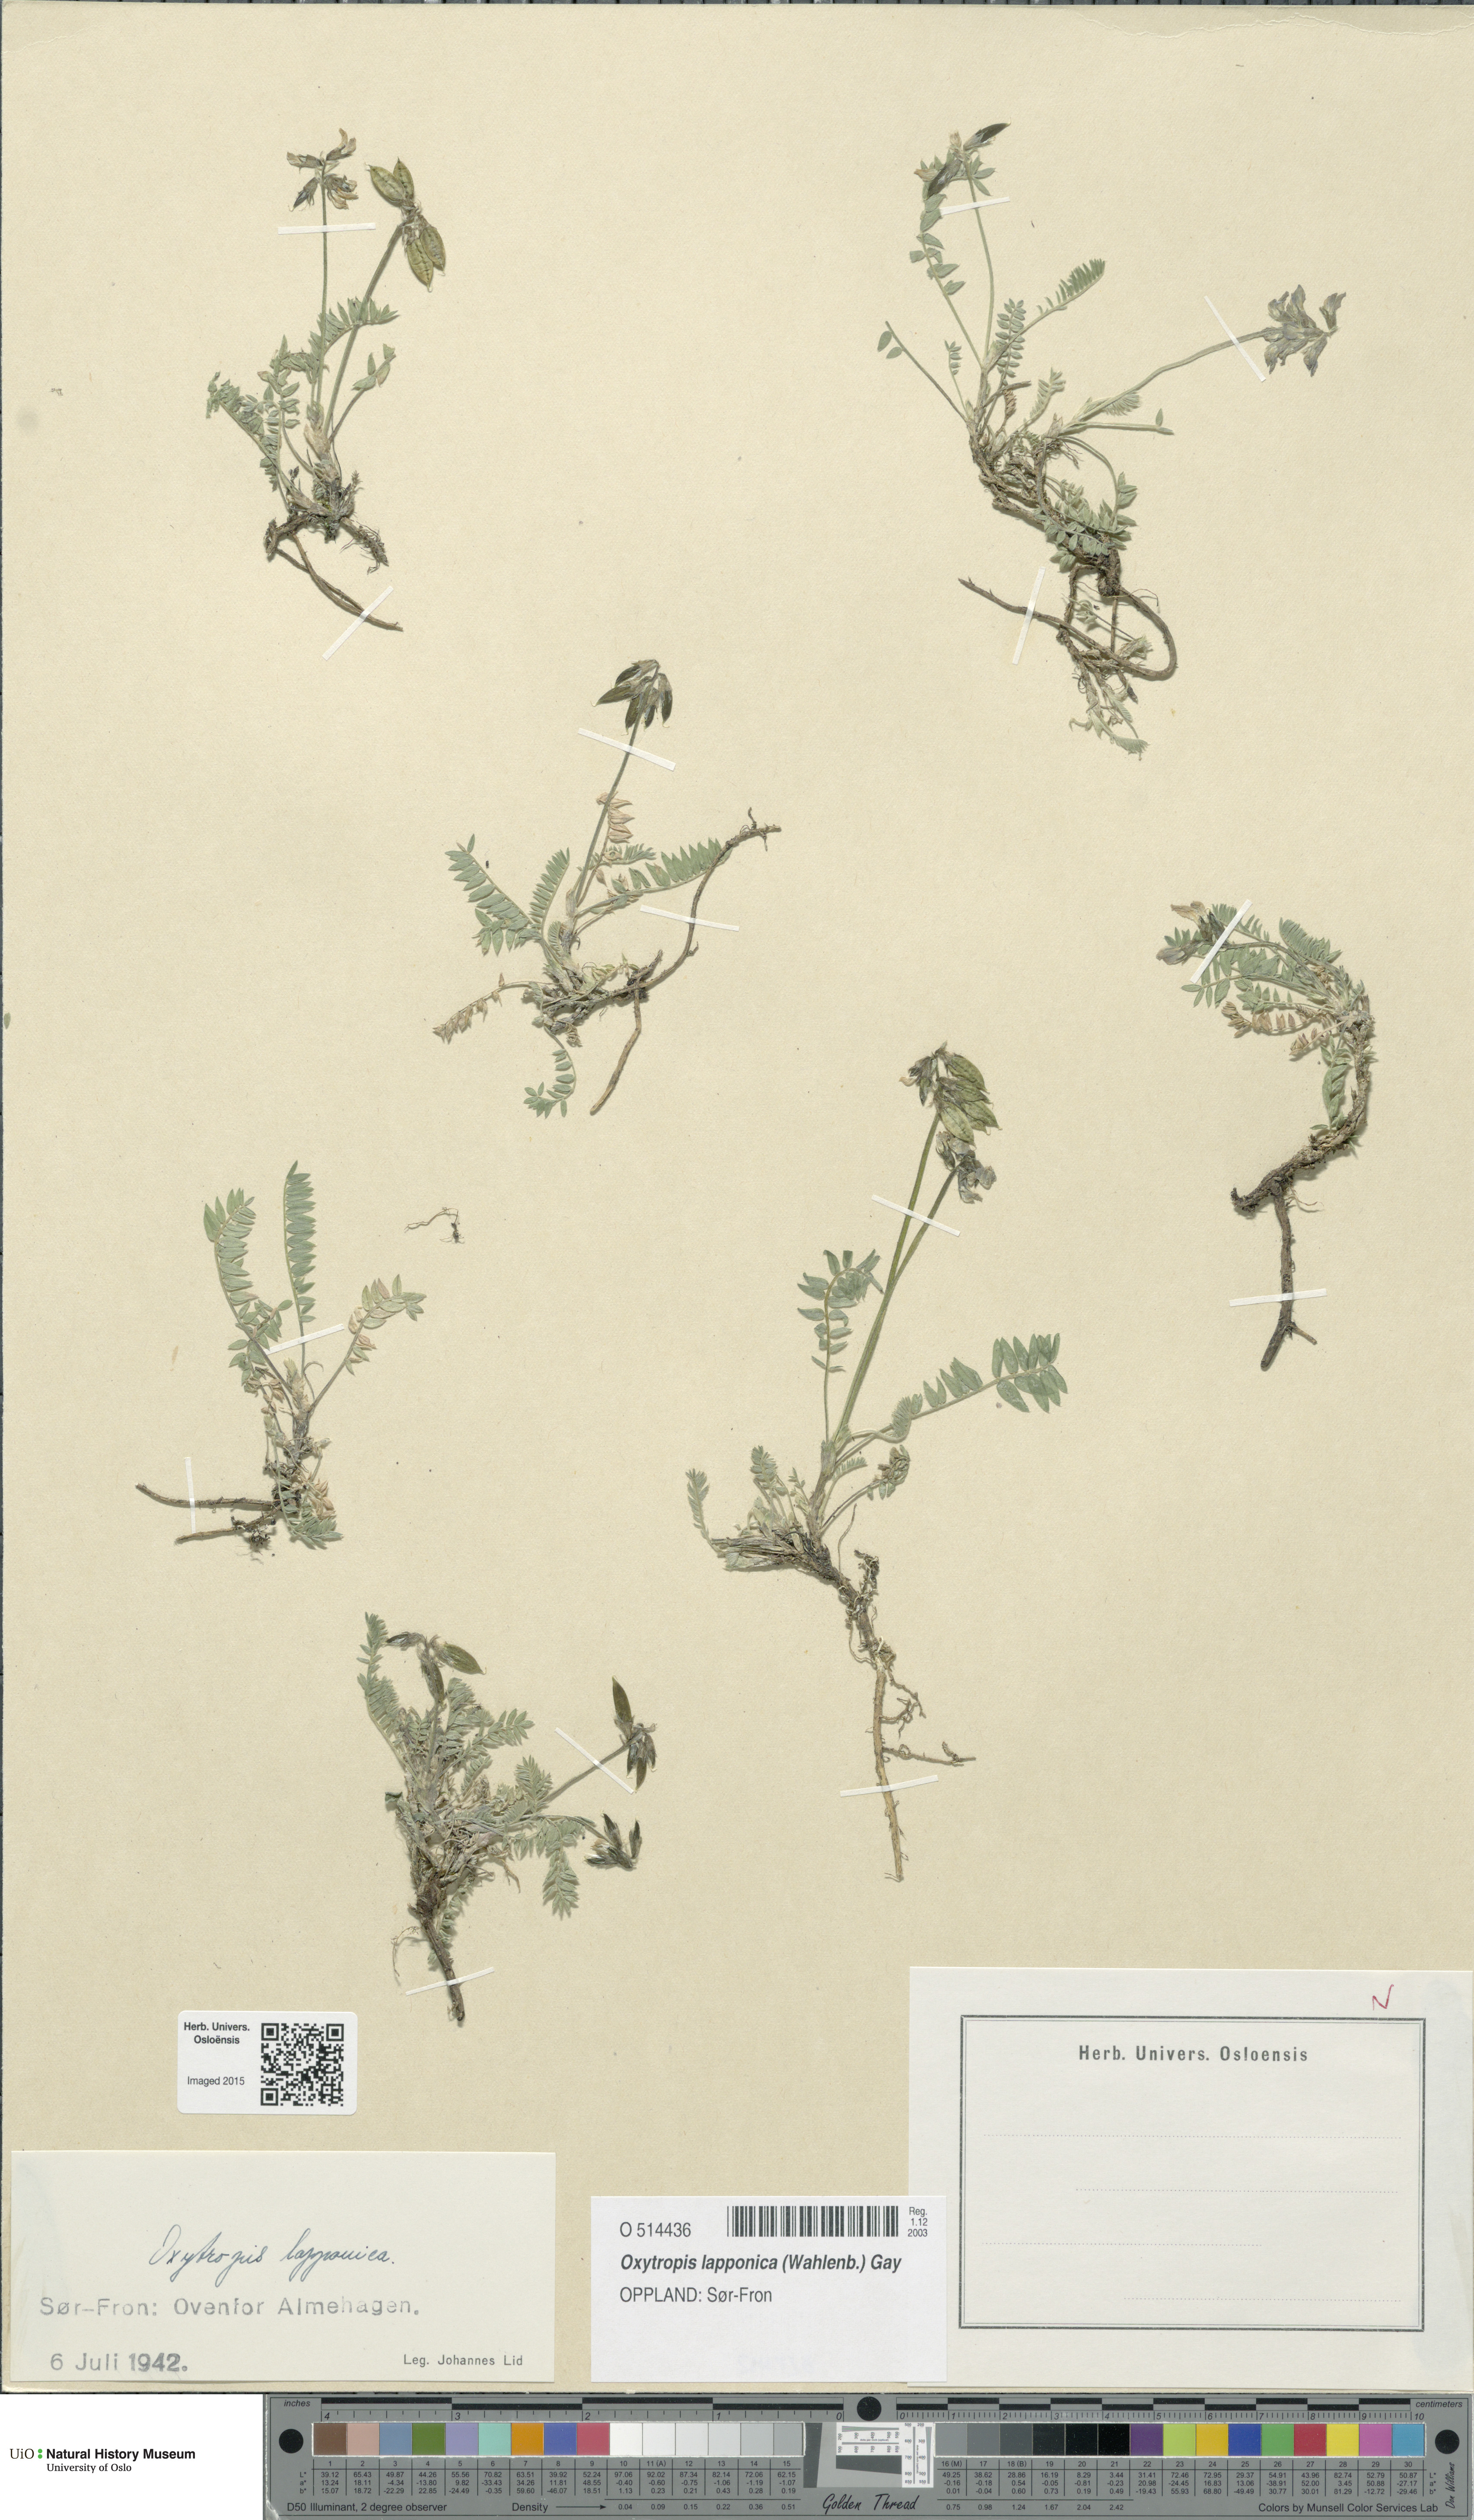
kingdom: Plantae
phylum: Tracheophyta
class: Magnoliopsida
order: Fabales
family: Fabaceae
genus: Oxytropis
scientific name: Oxytropis lapponica
